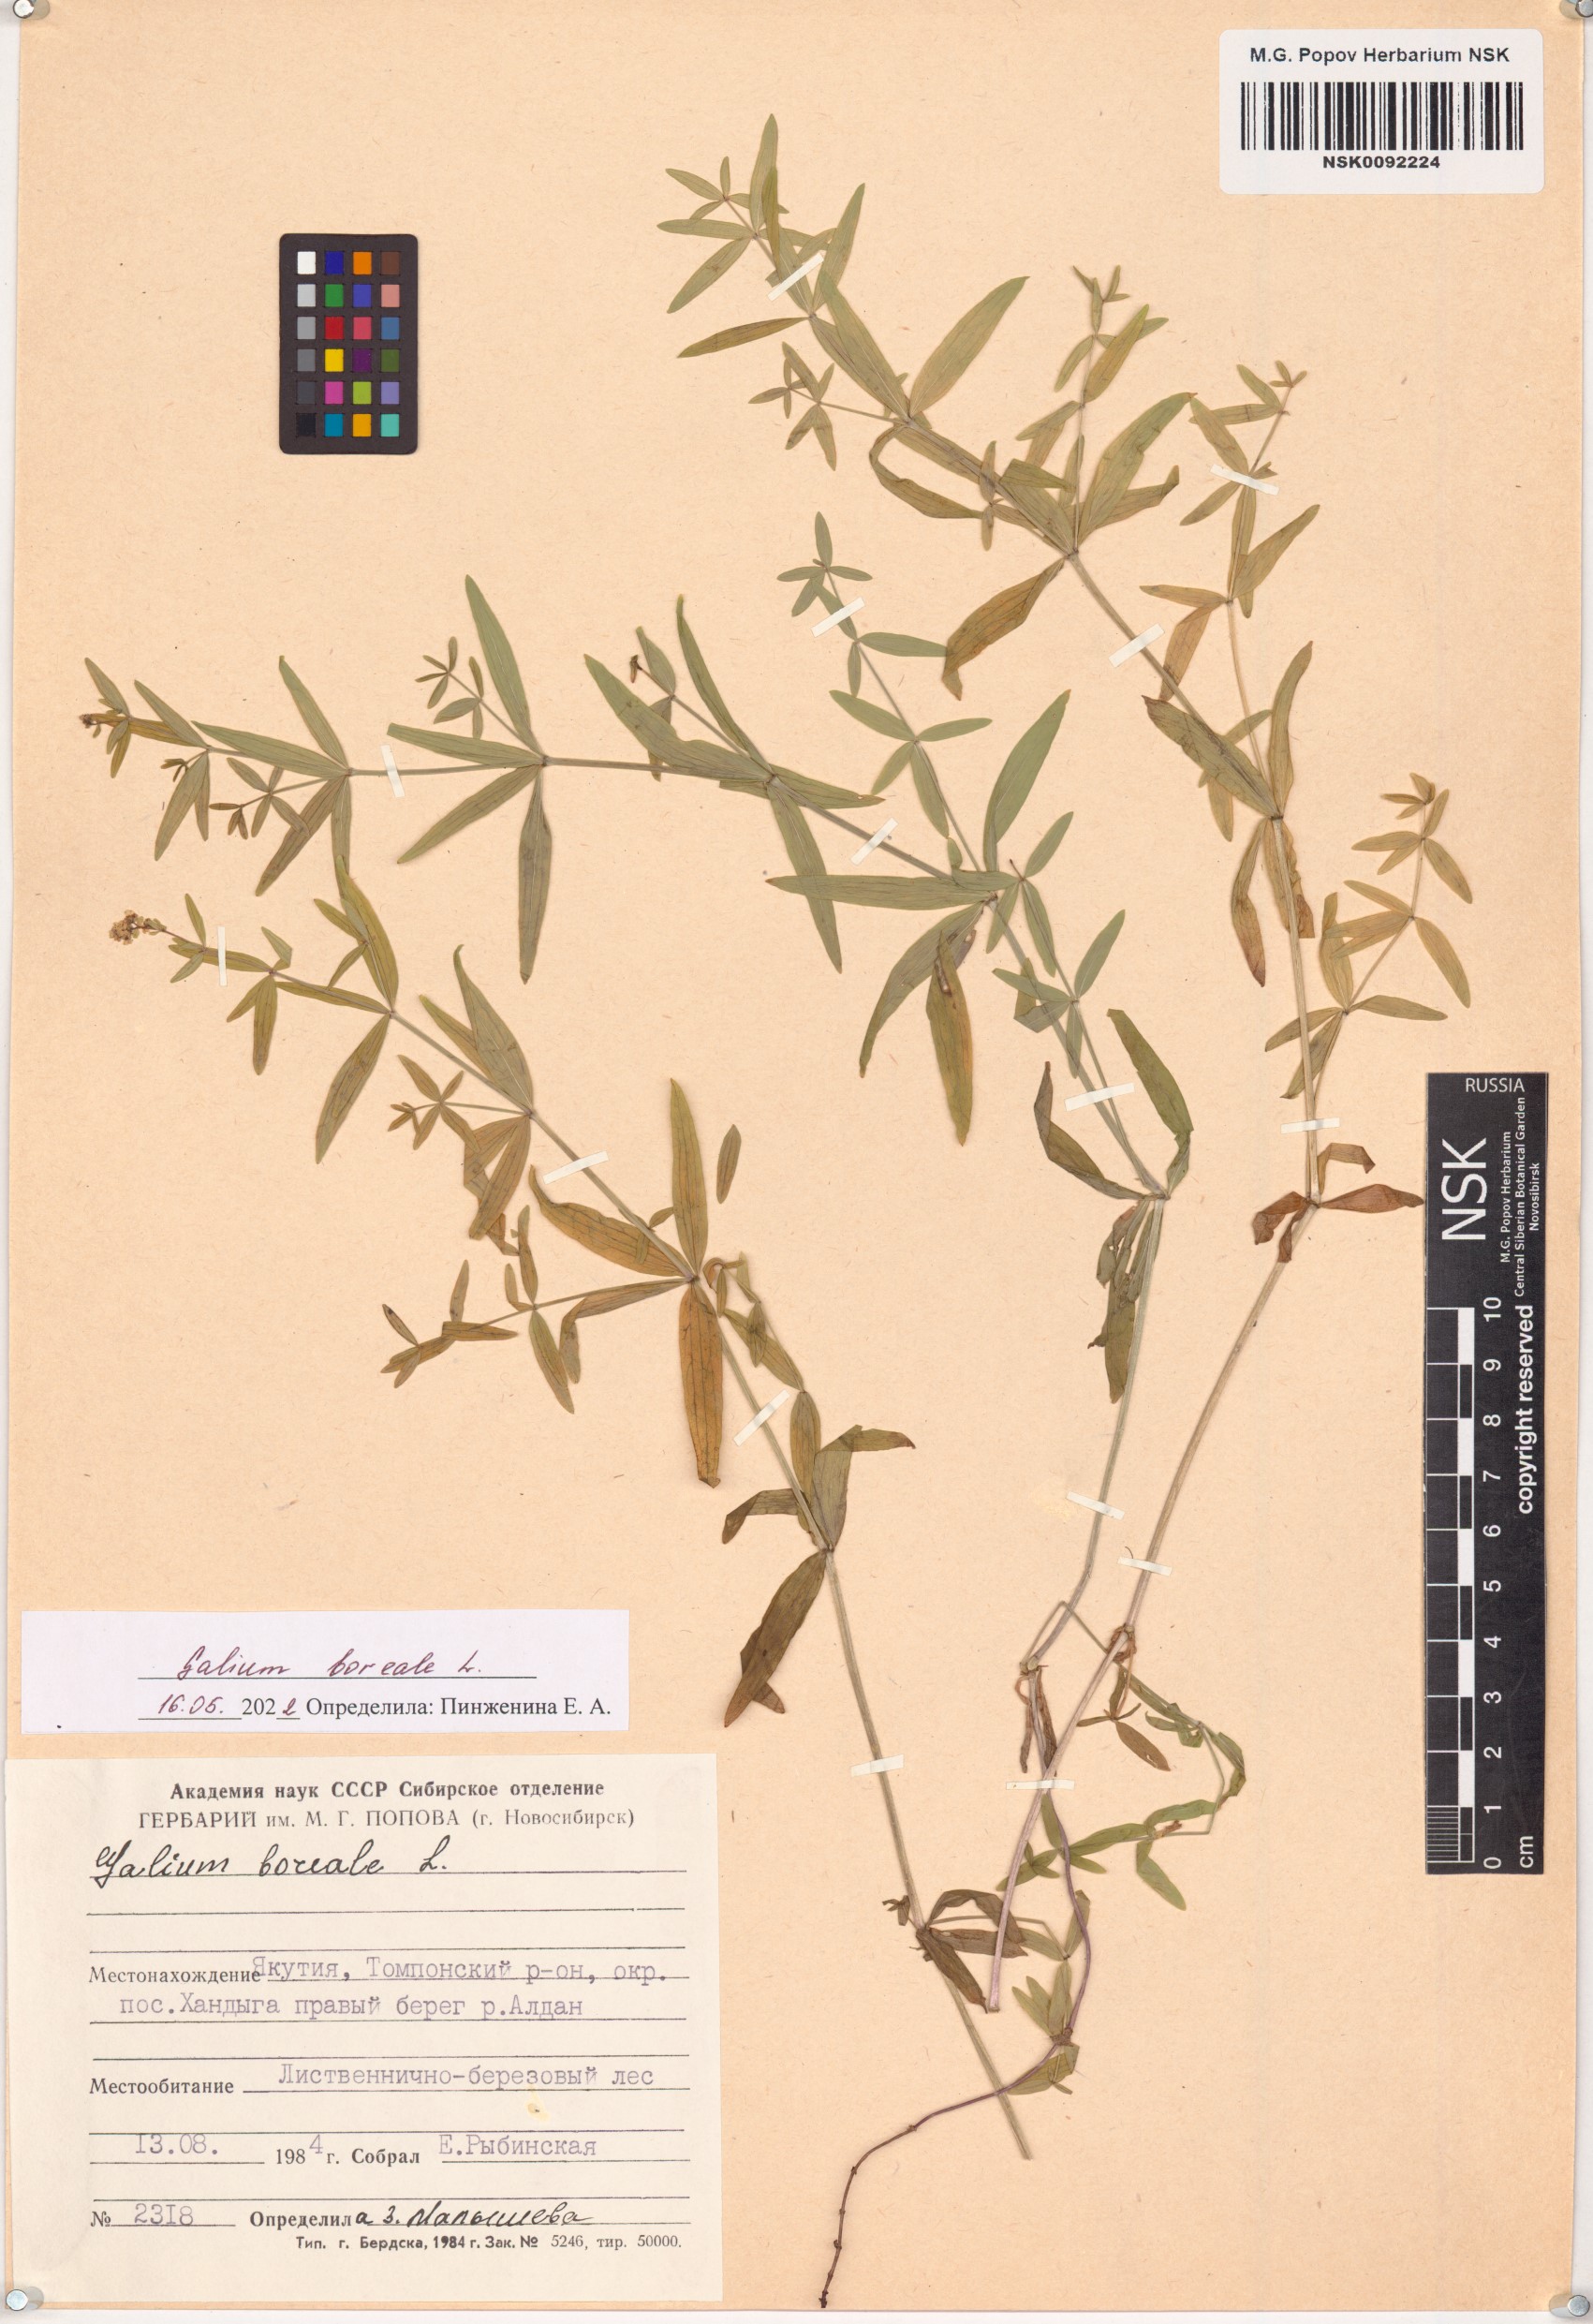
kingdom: Plantae
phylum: Tracheophyta
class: Magnoliopsida
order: Gentianales
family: Rubiaceae
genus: Galium
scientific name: Galium boreale
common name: Northern bedstraw
